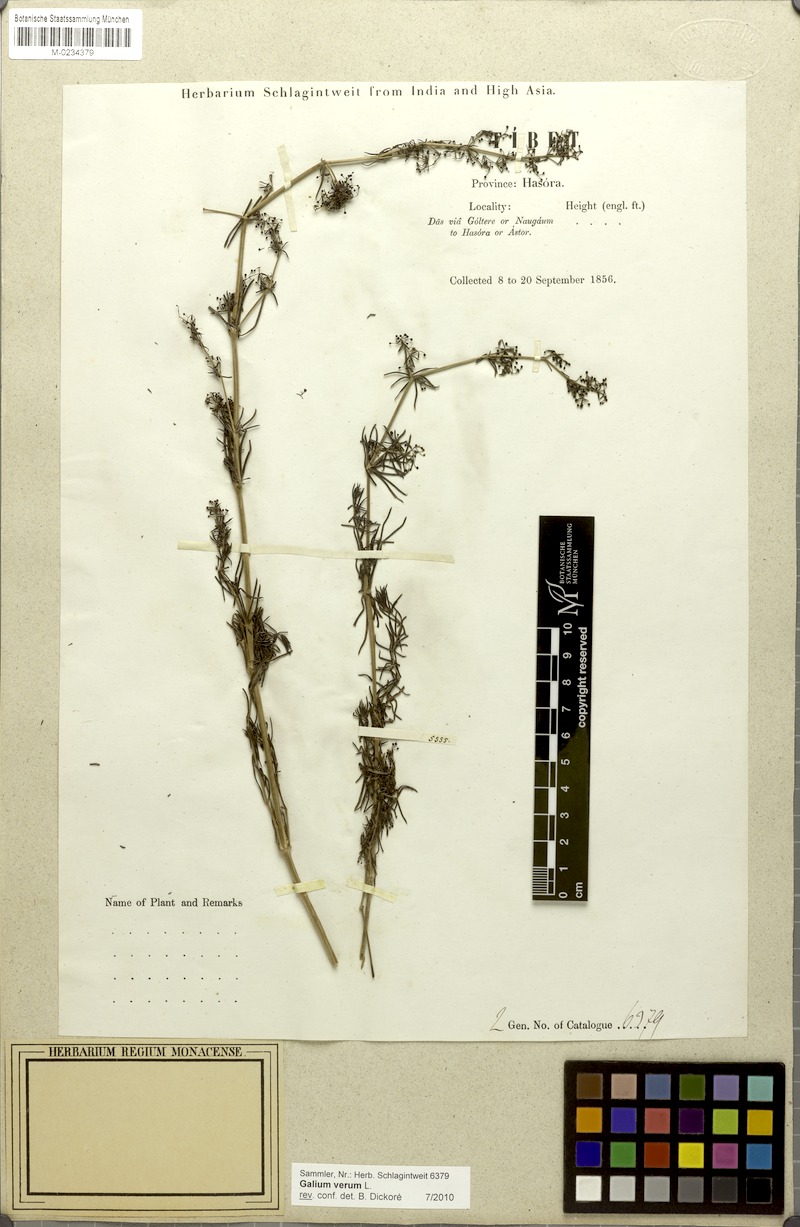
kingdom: Plantae
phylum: Tracheophyta
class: Magnoliopsida
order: Gentianales
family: Rubiaceae
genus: Galium
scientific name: Galium verum
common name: Lady's bedstraw
